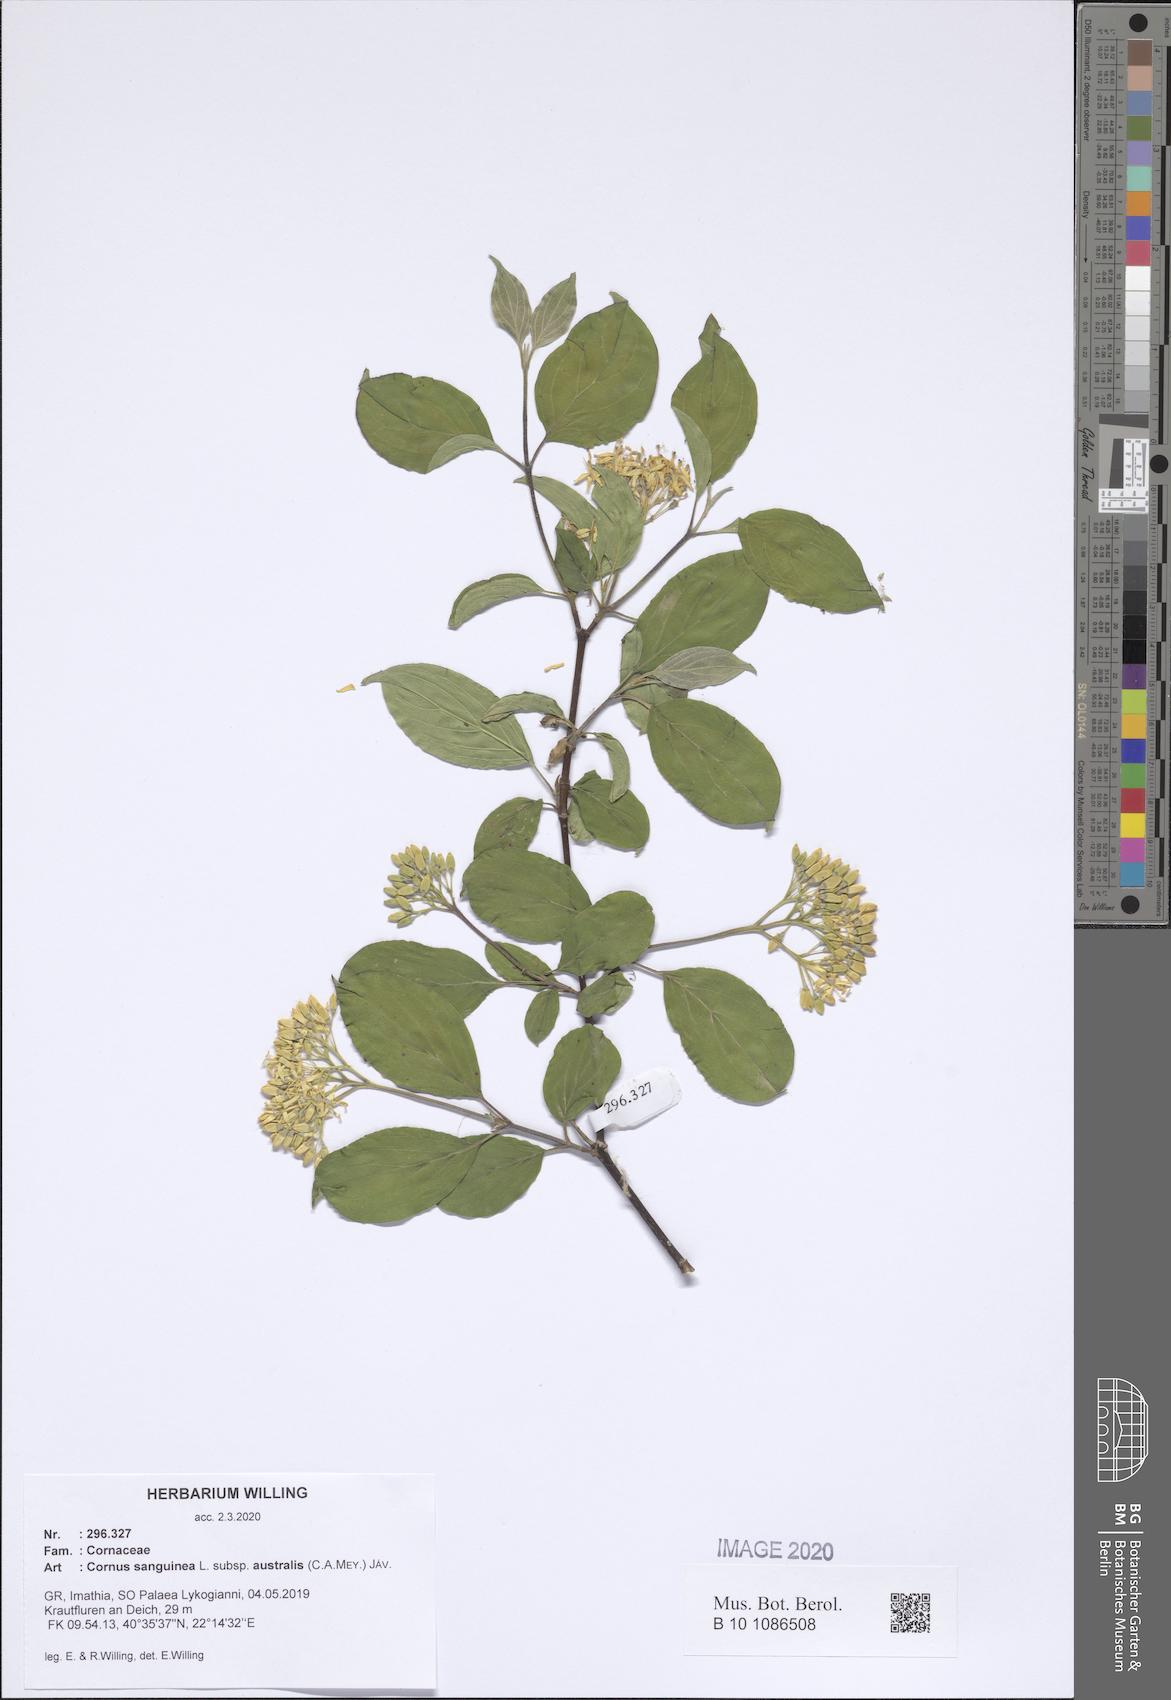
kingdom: Plantae
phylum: Tracheophyta
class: Magnoliopsida
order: Cornales
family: Cornaceae
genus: Cornus
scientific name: Cornus sanguinea
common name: Dogwood
